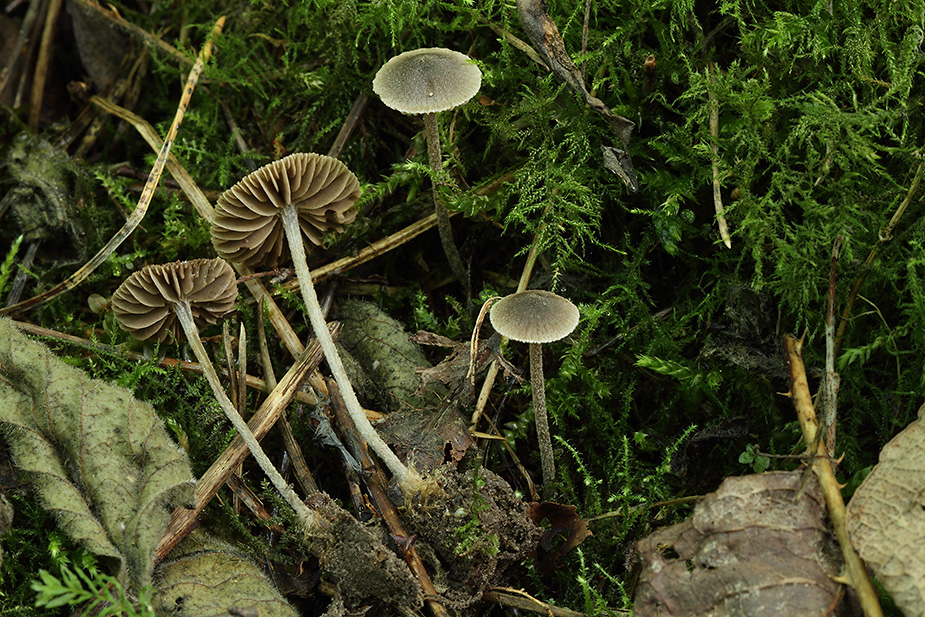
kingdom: Fungi
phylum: Basidiomycota
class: Agaricomycetes
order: Agaricales
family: Entolomataceae
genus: Entoloma
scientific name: Entoloma dysthaloides
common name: dyster rødblad
